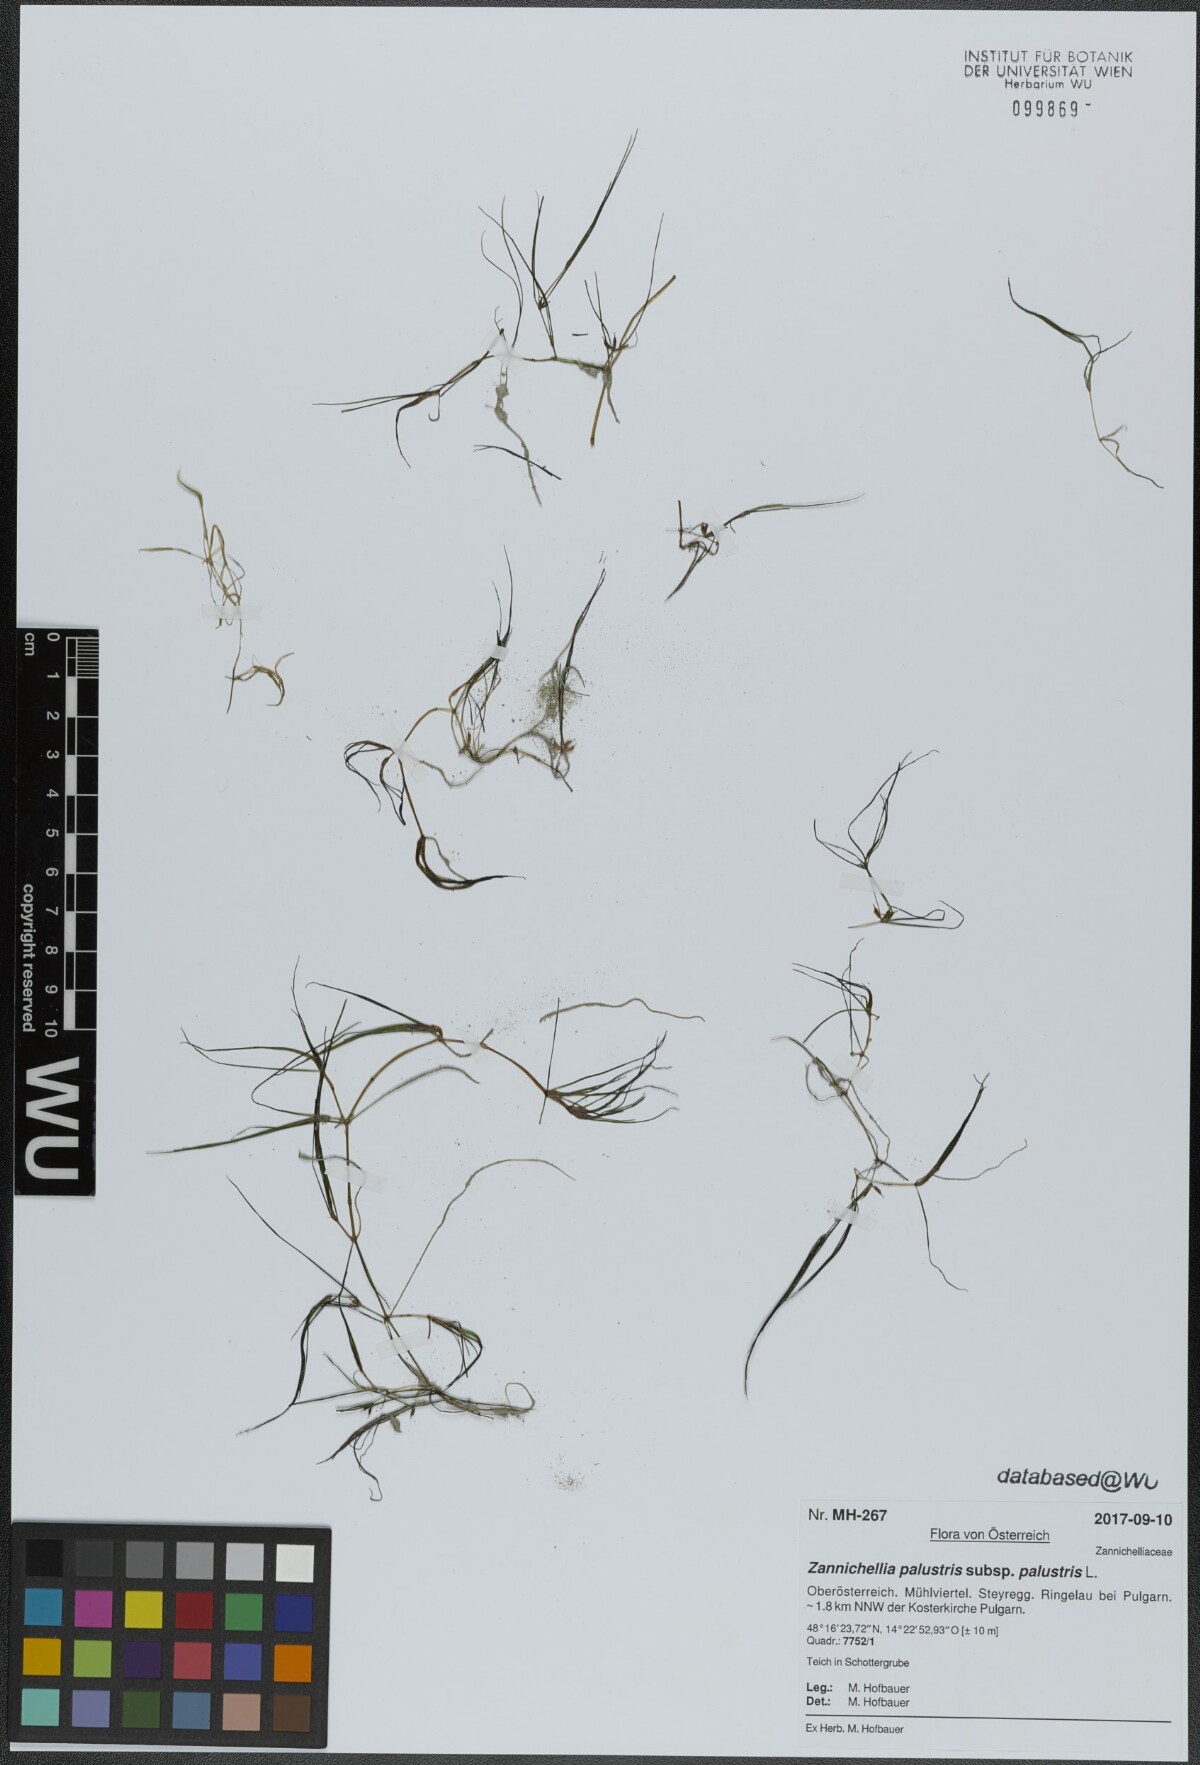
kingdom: Plantae
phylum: Tracheophyta
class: Liliopsida
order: Alismatales
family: Potamogetonaceae
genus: Zannichellia
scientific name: Zannichellia palustris
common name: Horned pondweed
